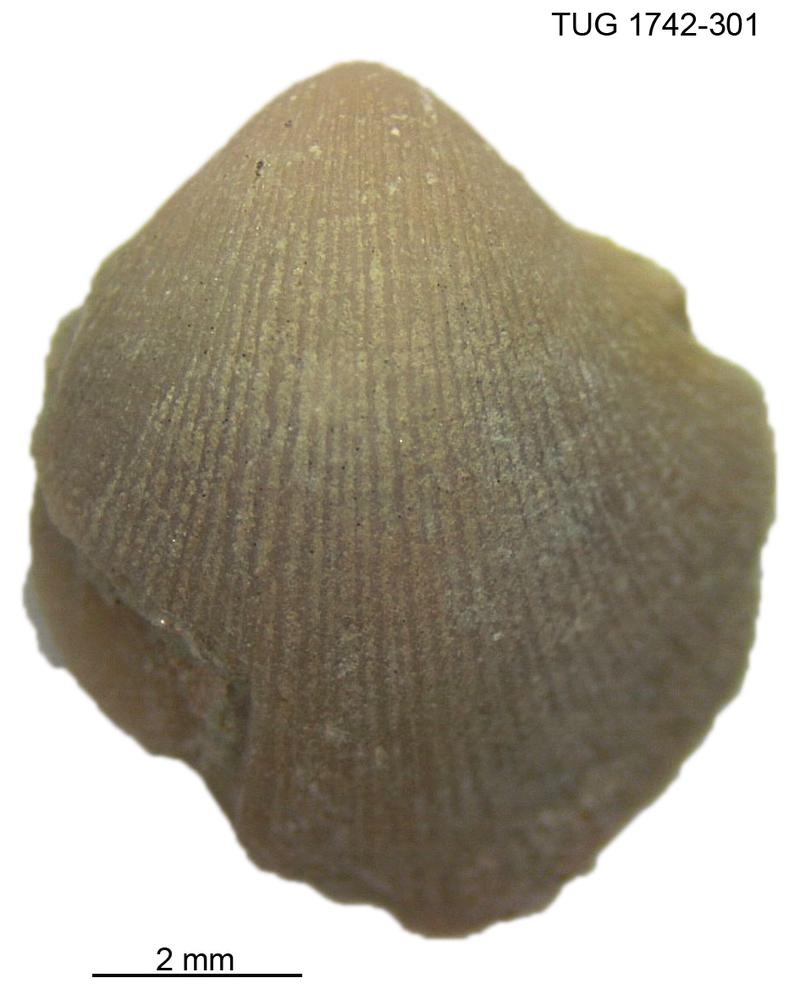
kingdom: Animalia
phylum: Brachiopoda
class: Rhynchonellata
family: Dalmanellidae
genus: Visbyella
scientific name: Visbyella pygmae
